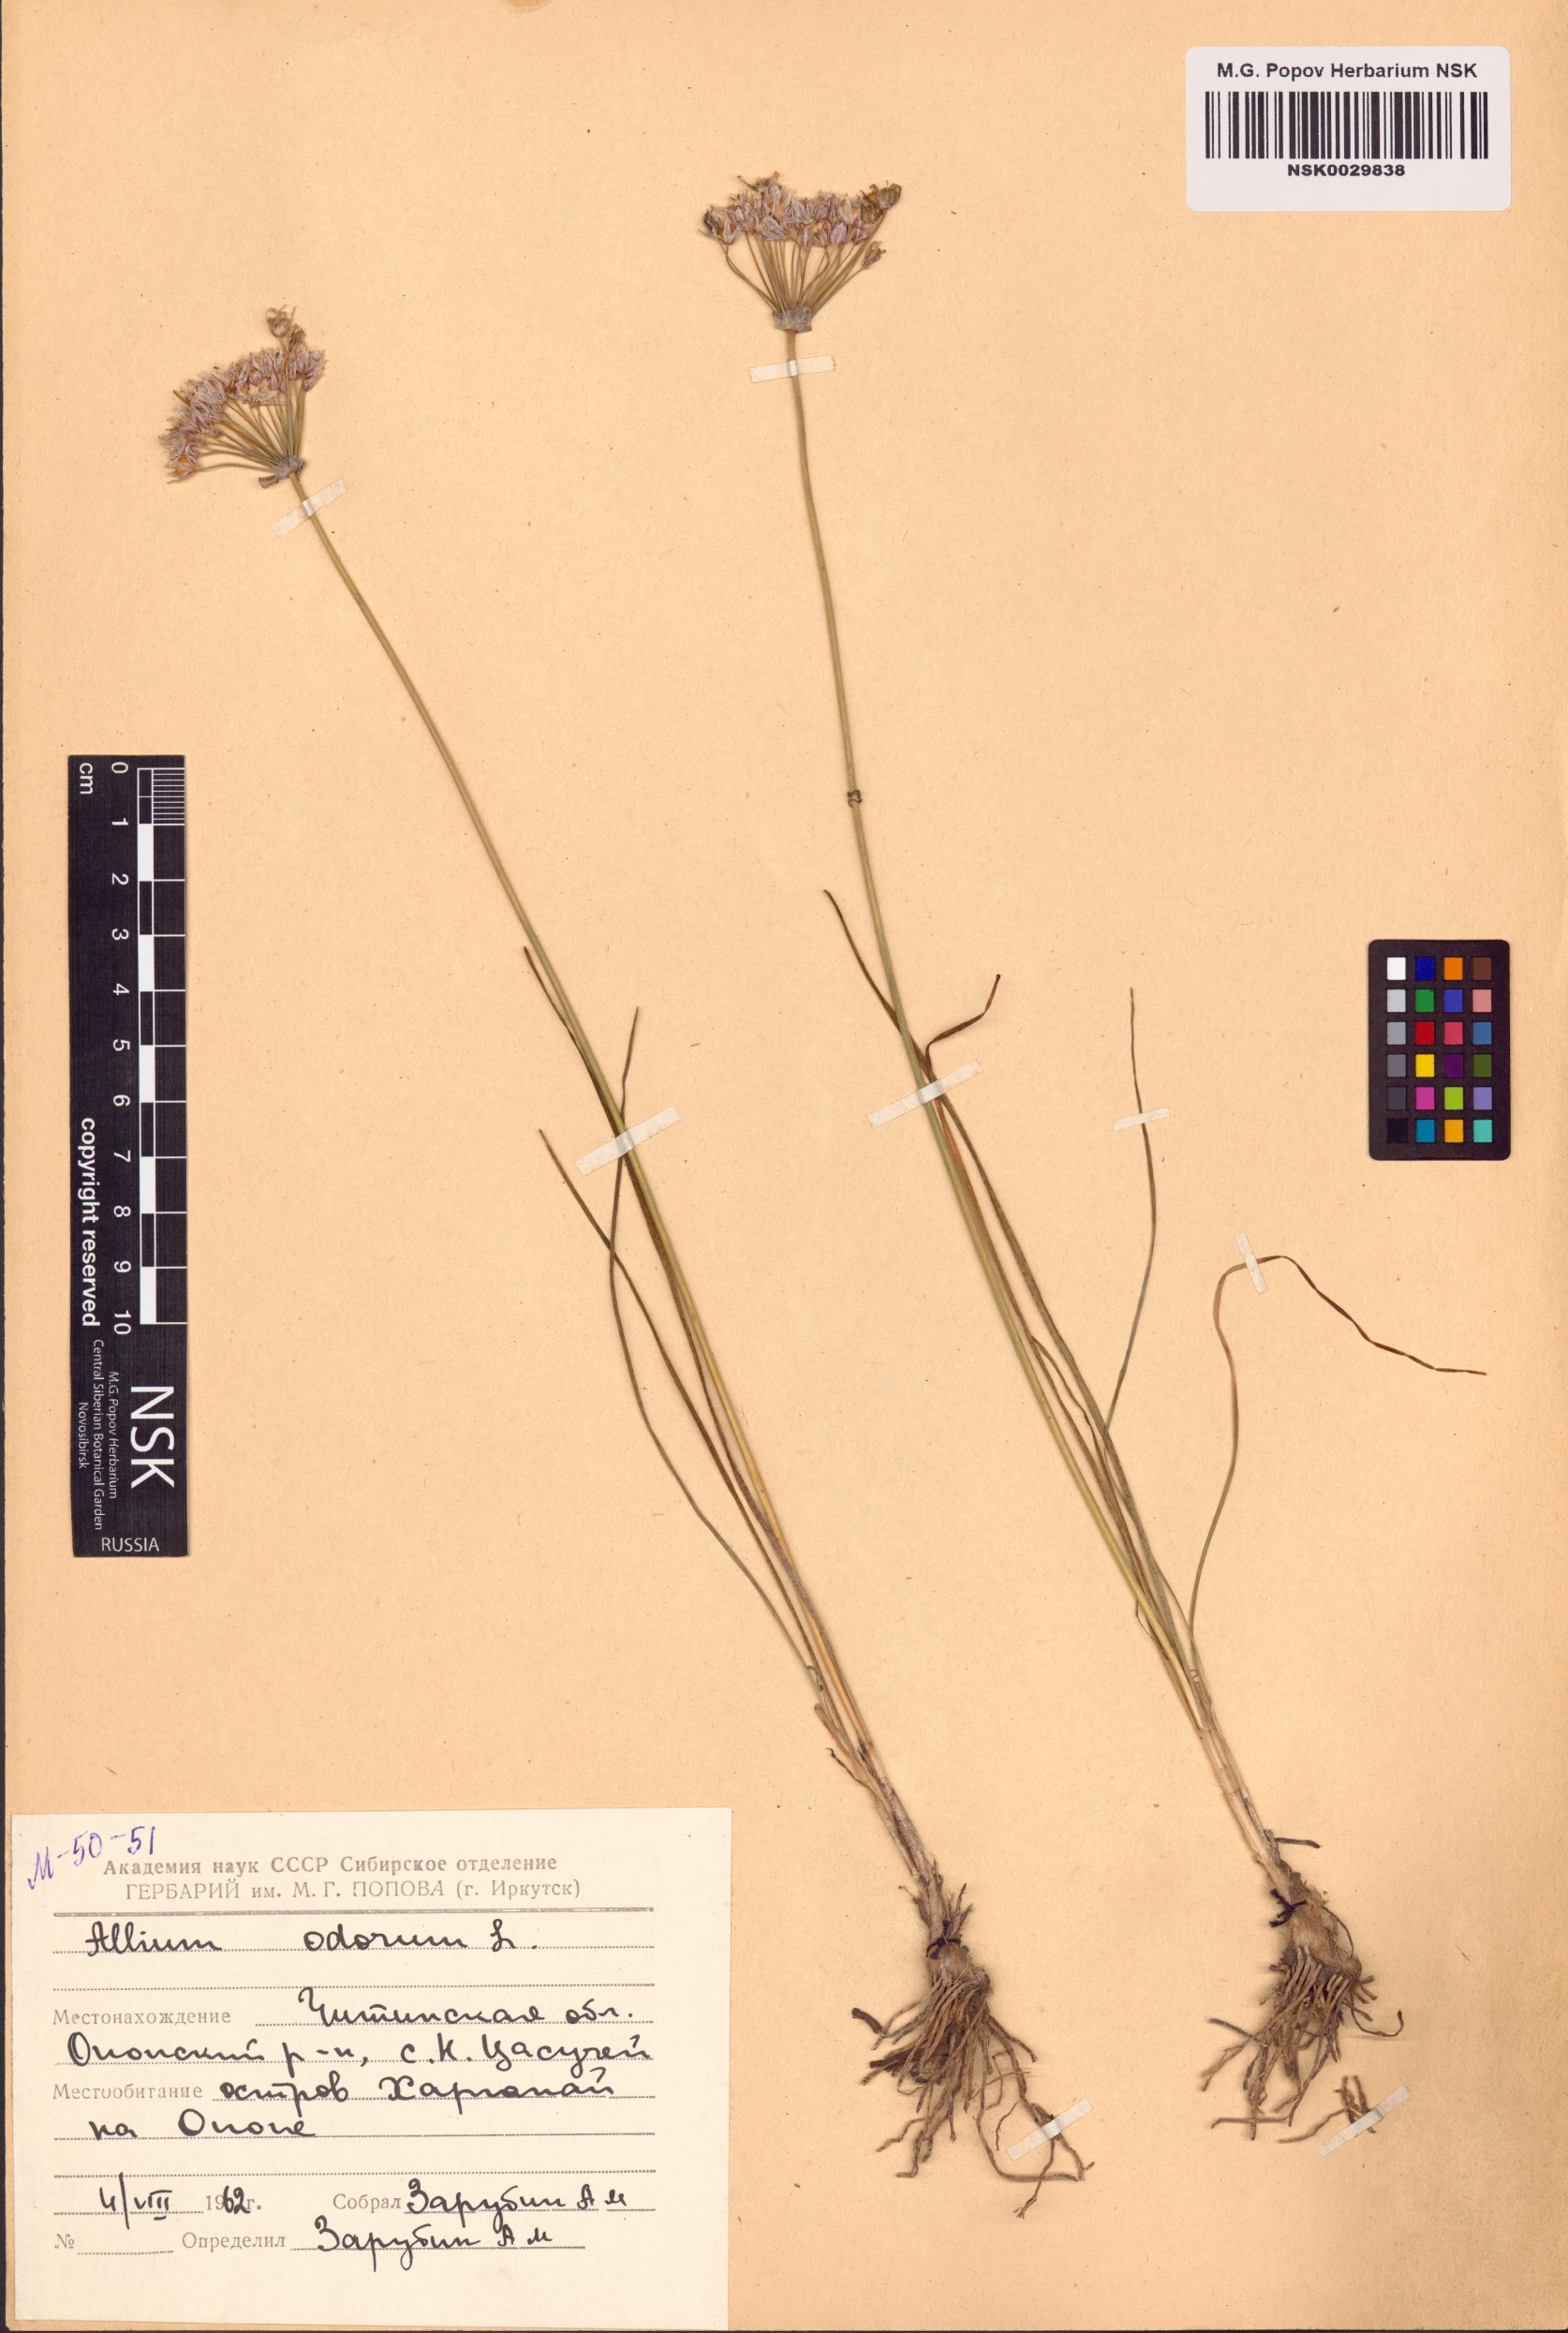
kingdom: Plantae
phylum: Tracheophyta
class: Liliopsida
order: Asparagales
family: Amaryllidaceae
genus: Allium
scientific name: Allium ramosum
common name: Fragrant garlic
